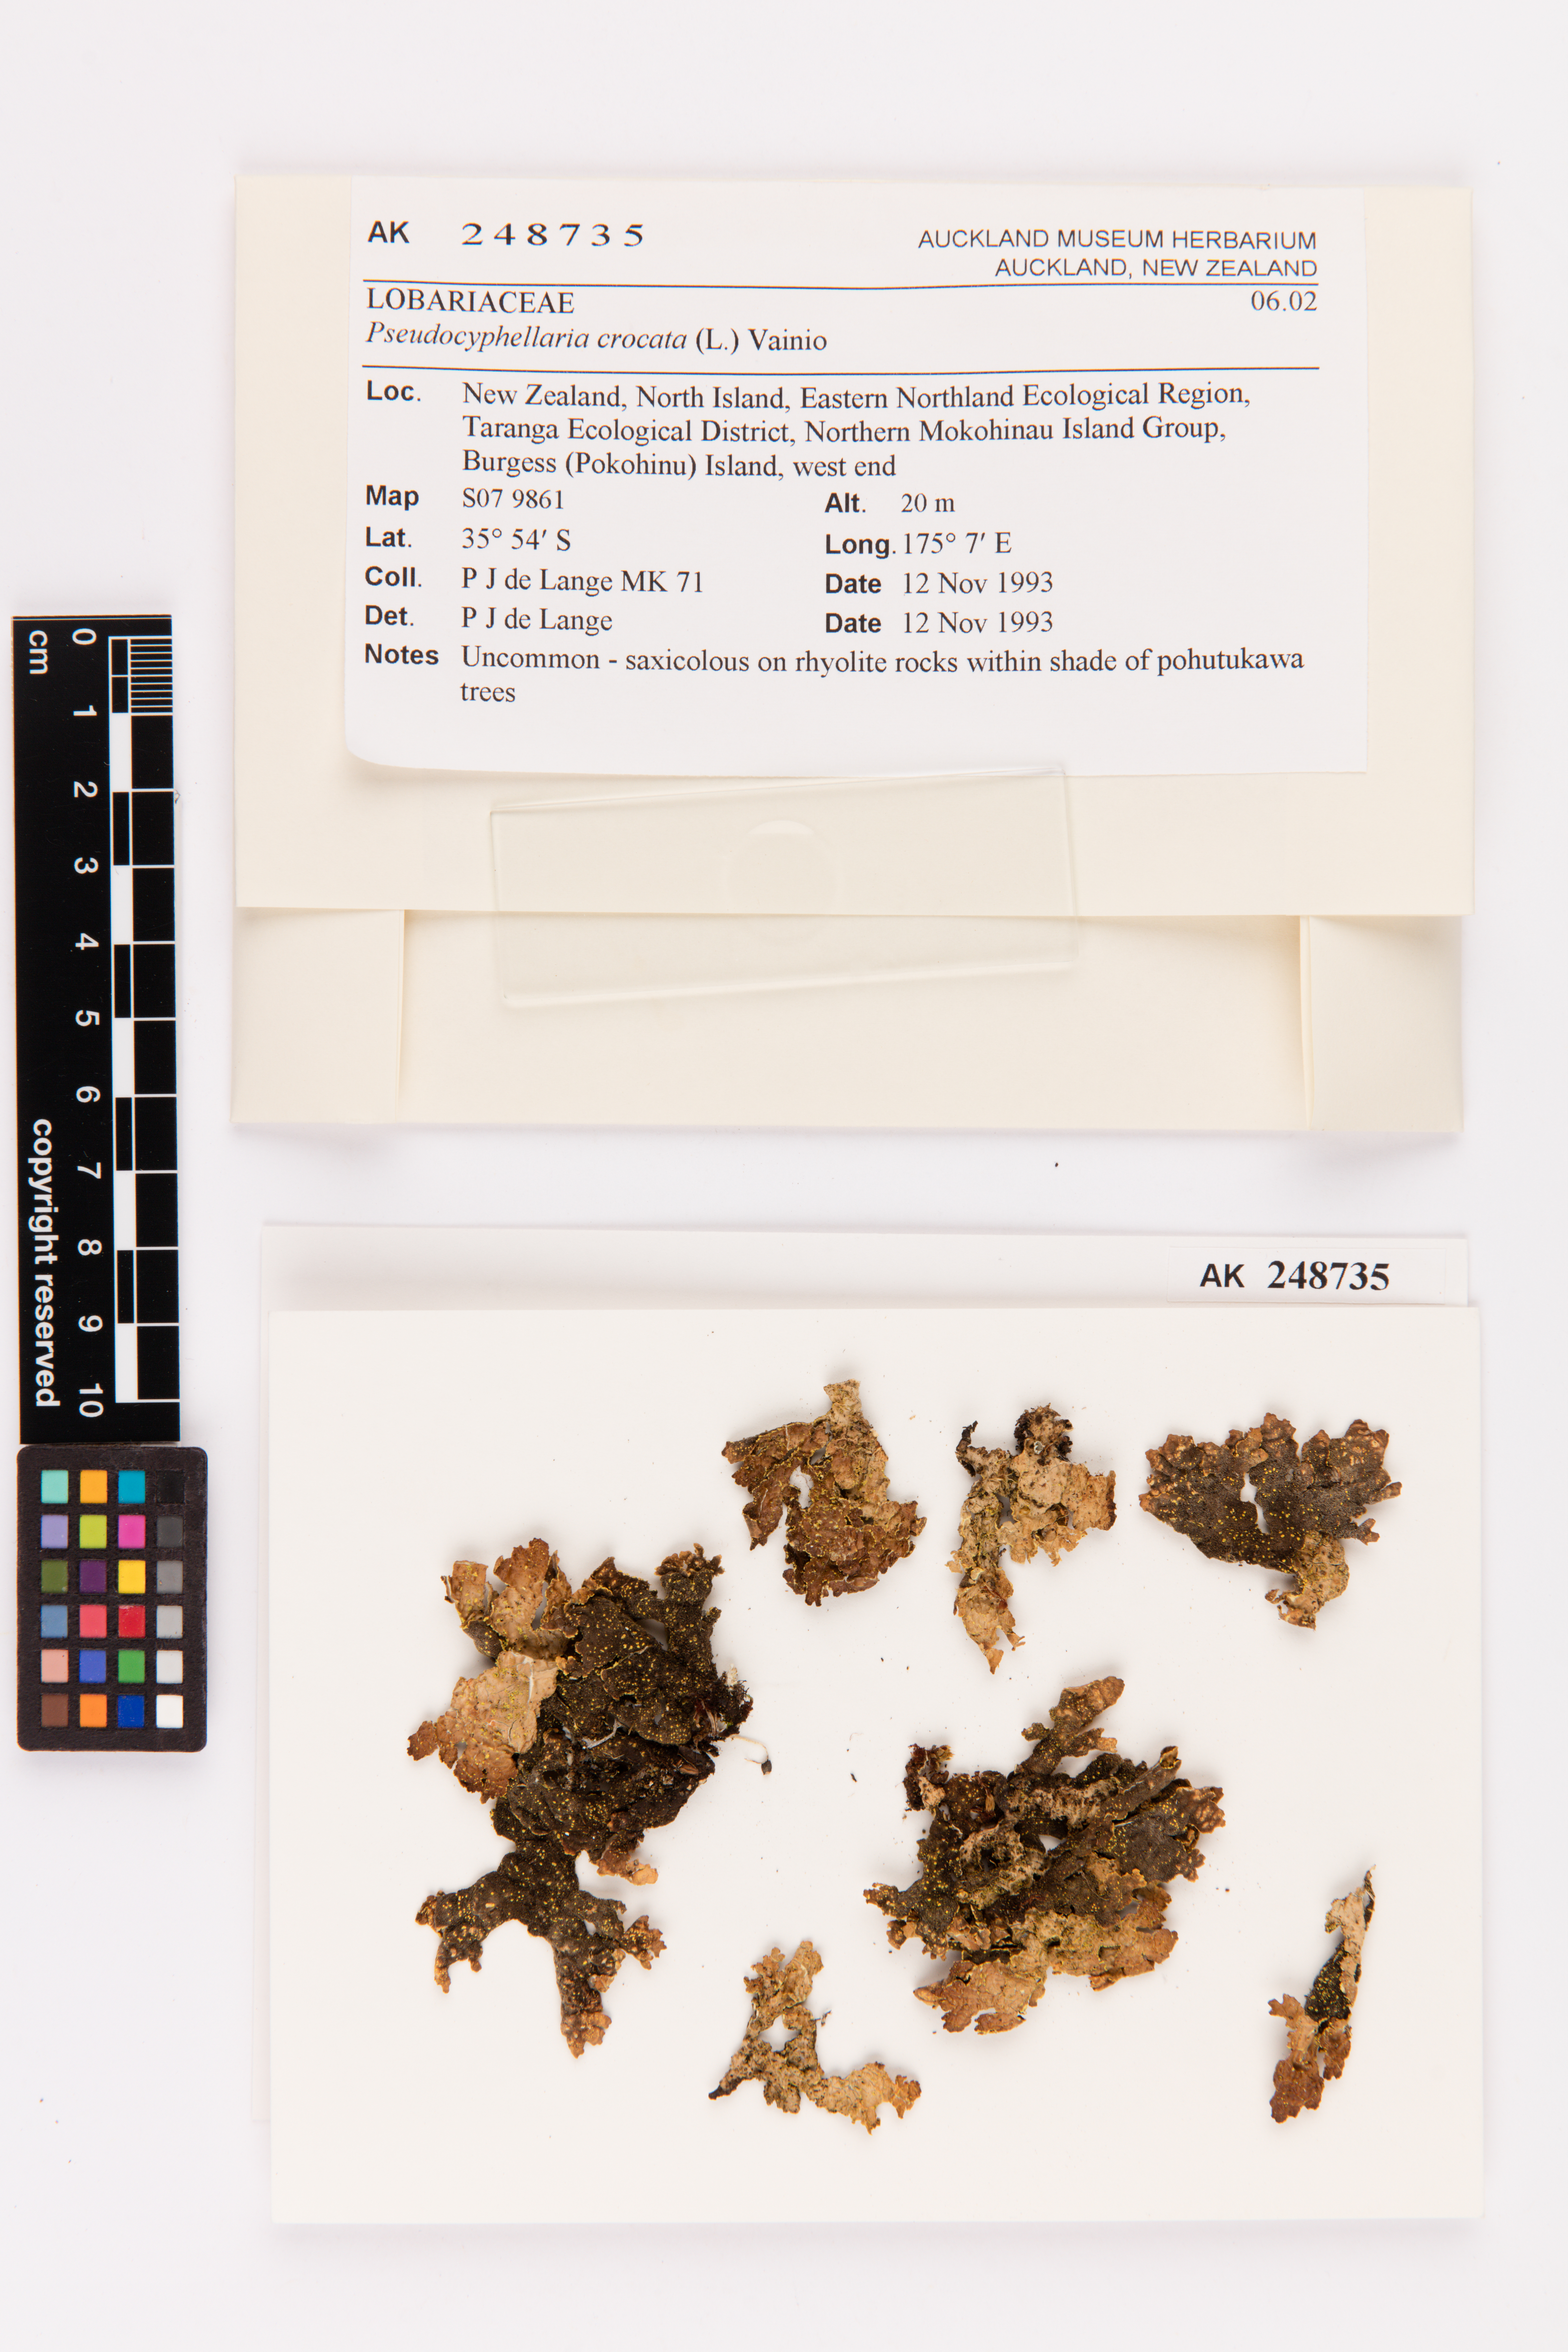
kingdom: Fungi
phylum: Ascomycota
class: Lecanoromycetes
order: Peltigerales
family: Lobariaceae
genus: Pseudocyphellaria
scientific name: Pseudocyphellaria crocata
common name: Golden specklebelly
